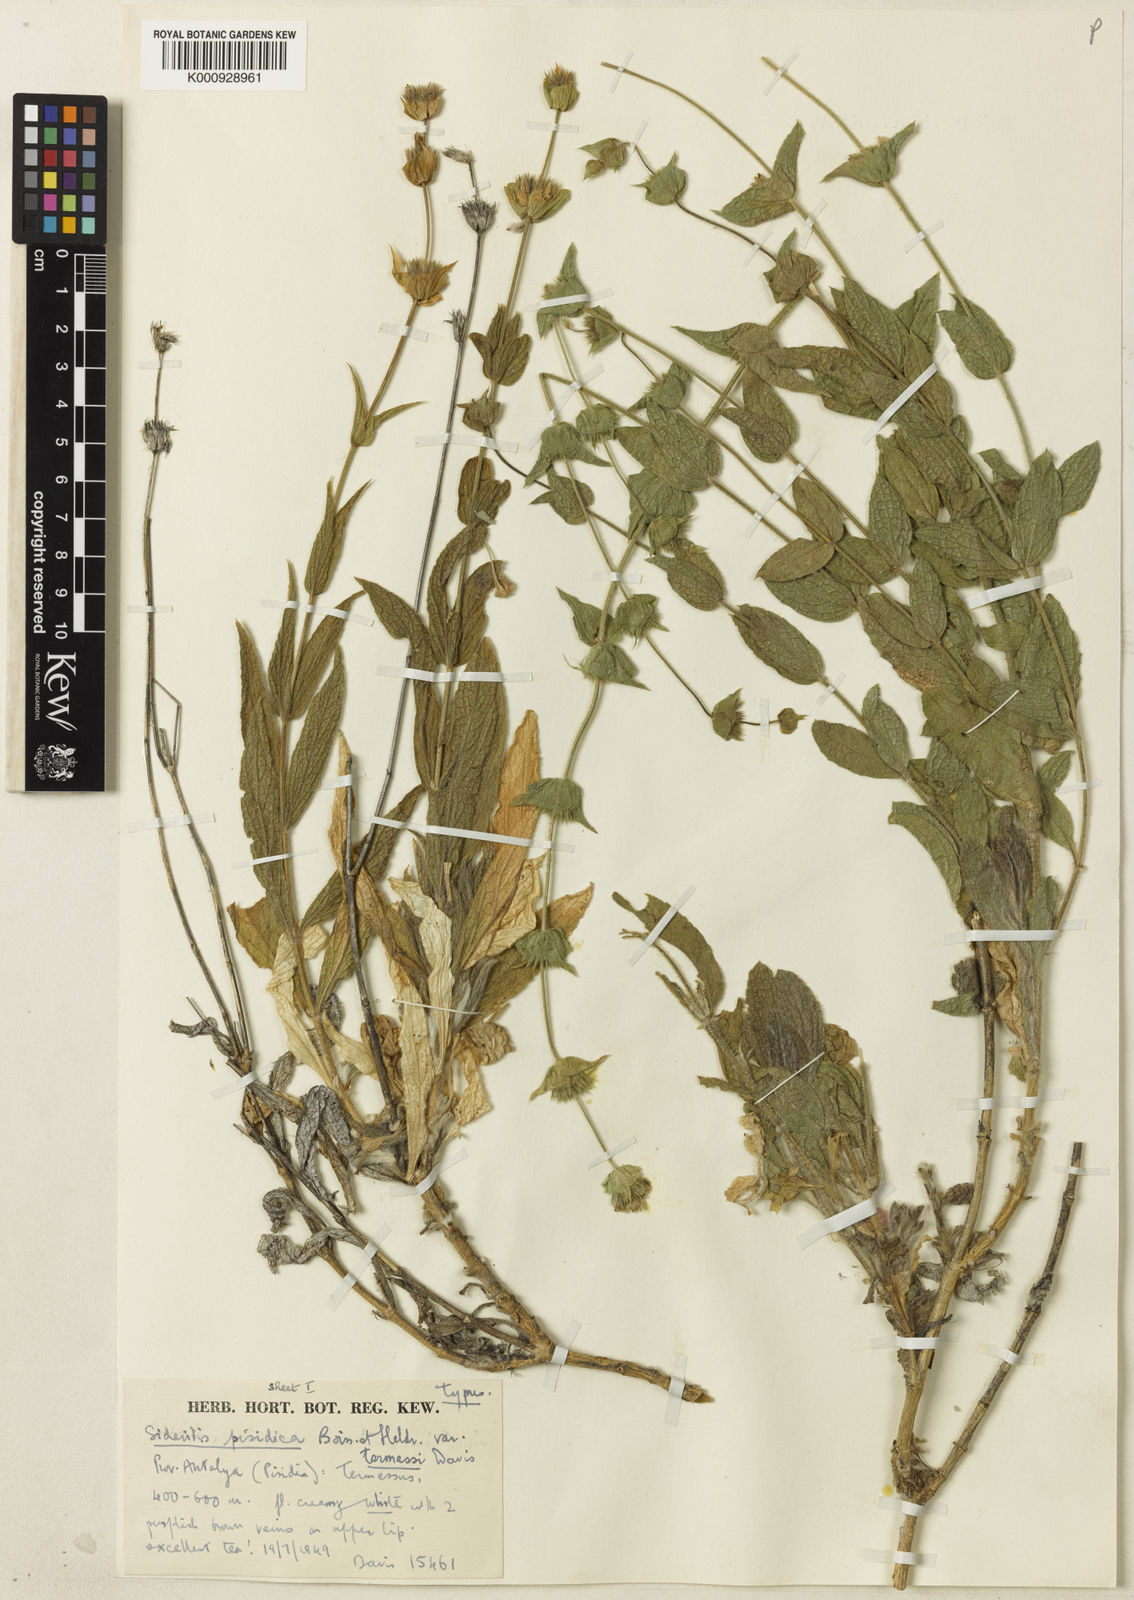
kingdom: Plantae
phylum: Tracheophyta
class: Magnoliopsida
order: Lamiales
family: Lamiaceae
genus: Sideritis
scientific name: Sideritis pisidica
